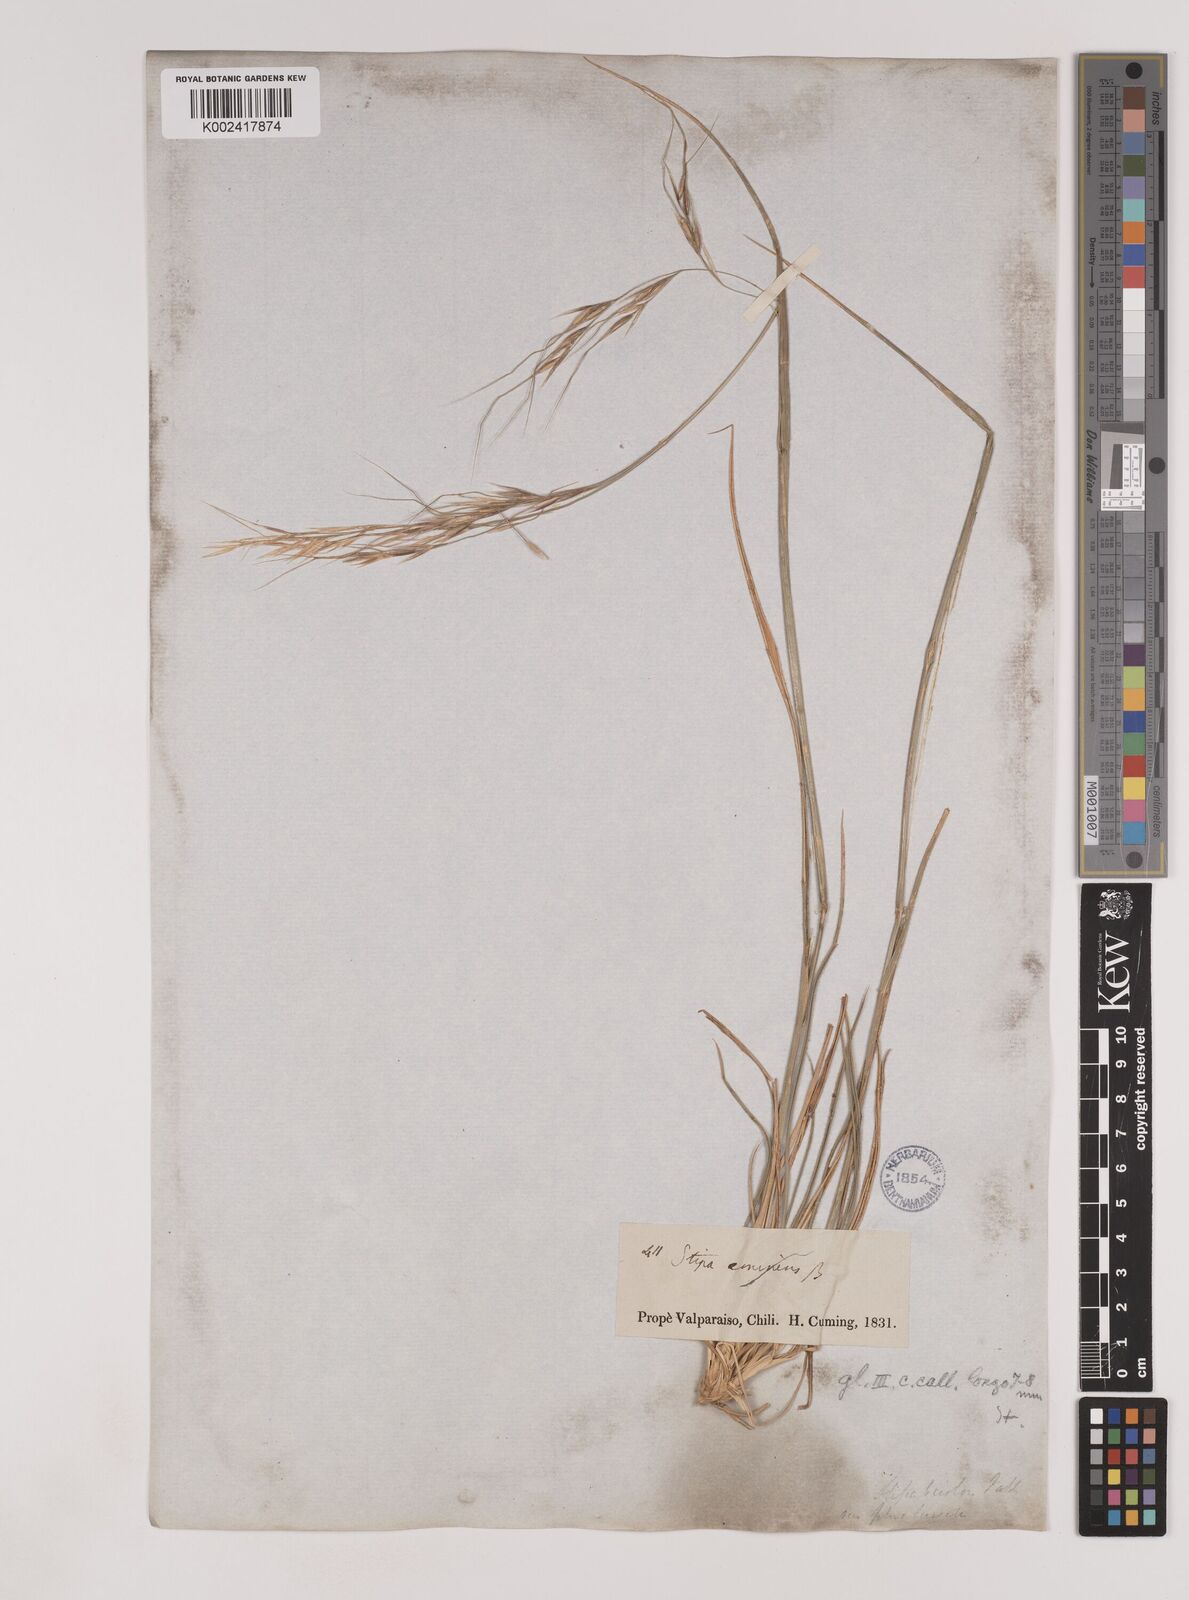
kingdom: Plantae
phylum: Tracheophyta
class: Liliopsida
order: Poales
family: Poaceae
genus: Nassella
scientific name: Nassella neesiana
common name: American needle-grass
